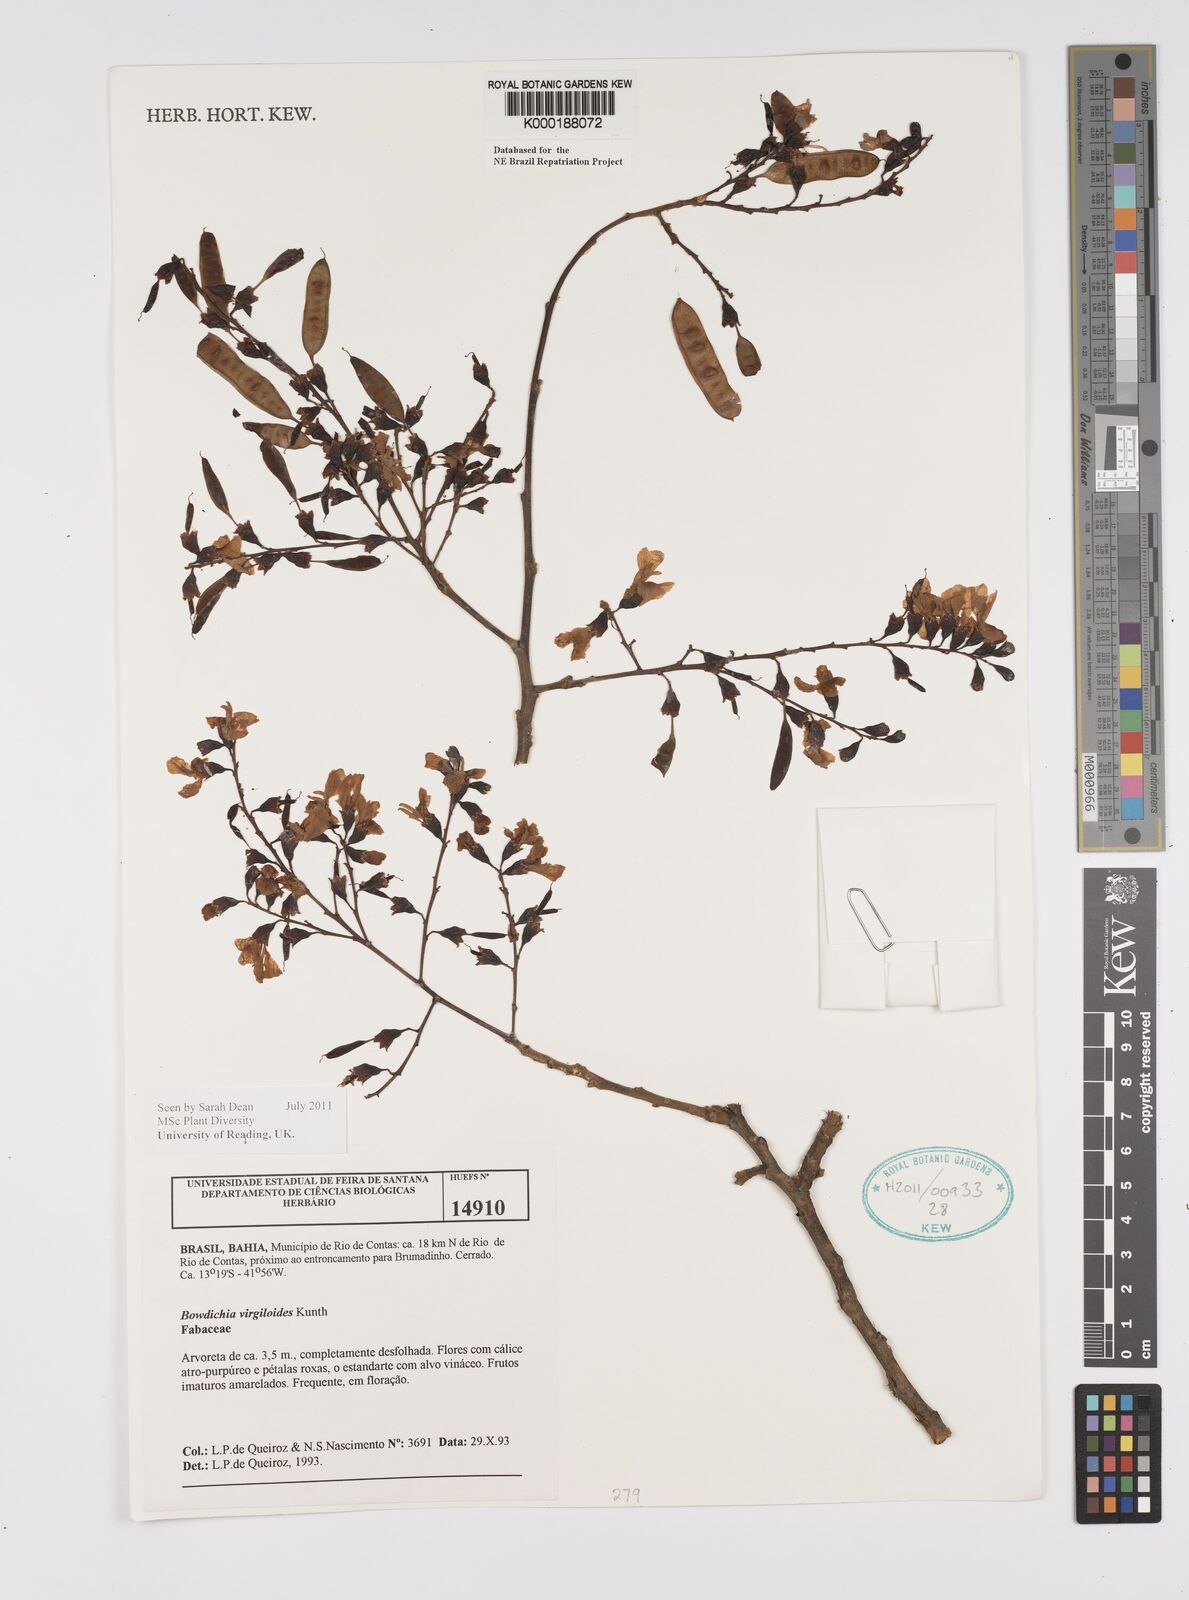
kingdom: Plantae
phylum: Tracheophyta
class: Magnoliopsida
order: Fabales
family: Fabaceae
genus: Bowdichia
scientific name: Bowdichia virgilioides
